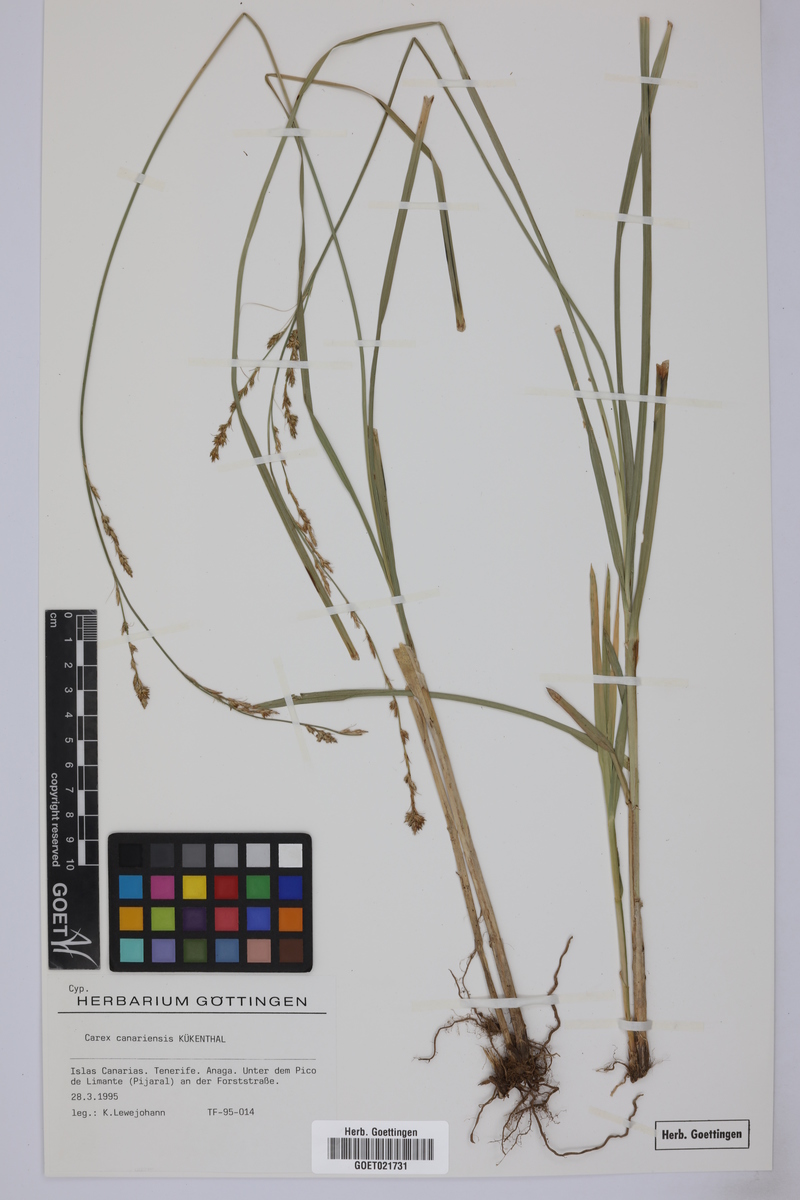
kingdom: Plantae
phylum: Tracheophyta
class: Liliopsida
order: Poales
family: Cyperaceae
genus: Carex
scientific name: Carex canariensis
